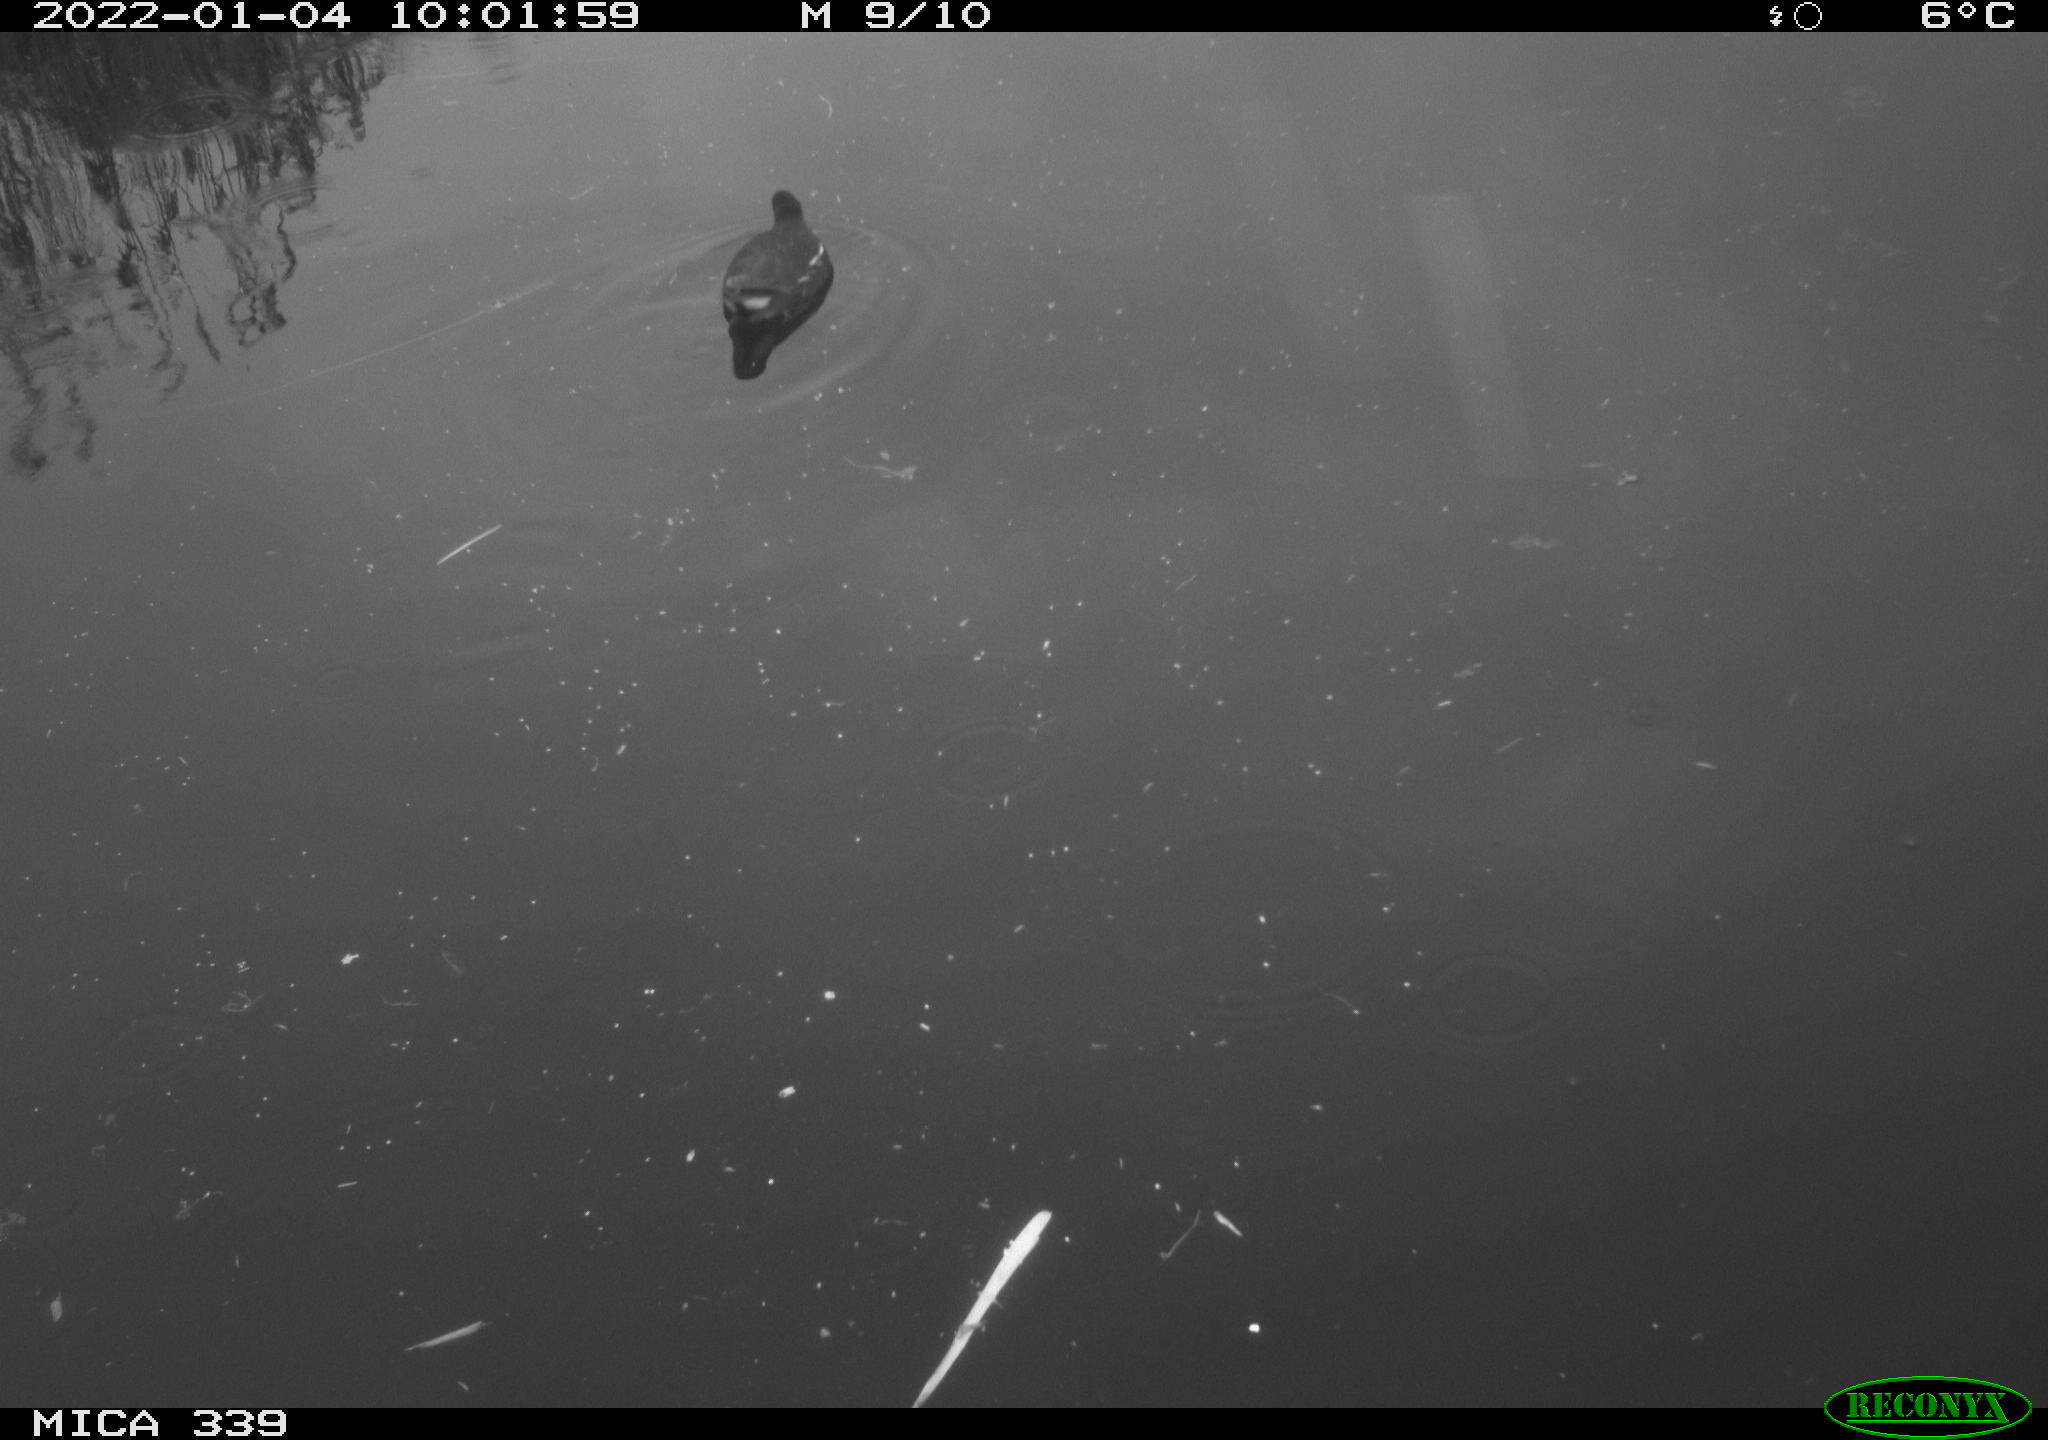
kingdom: Animalia
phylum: Chordata
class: Aves
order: Gruiformes
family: Rallidae
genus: Gallinula
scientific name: Gallinula chloropus
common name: Common moorhen
